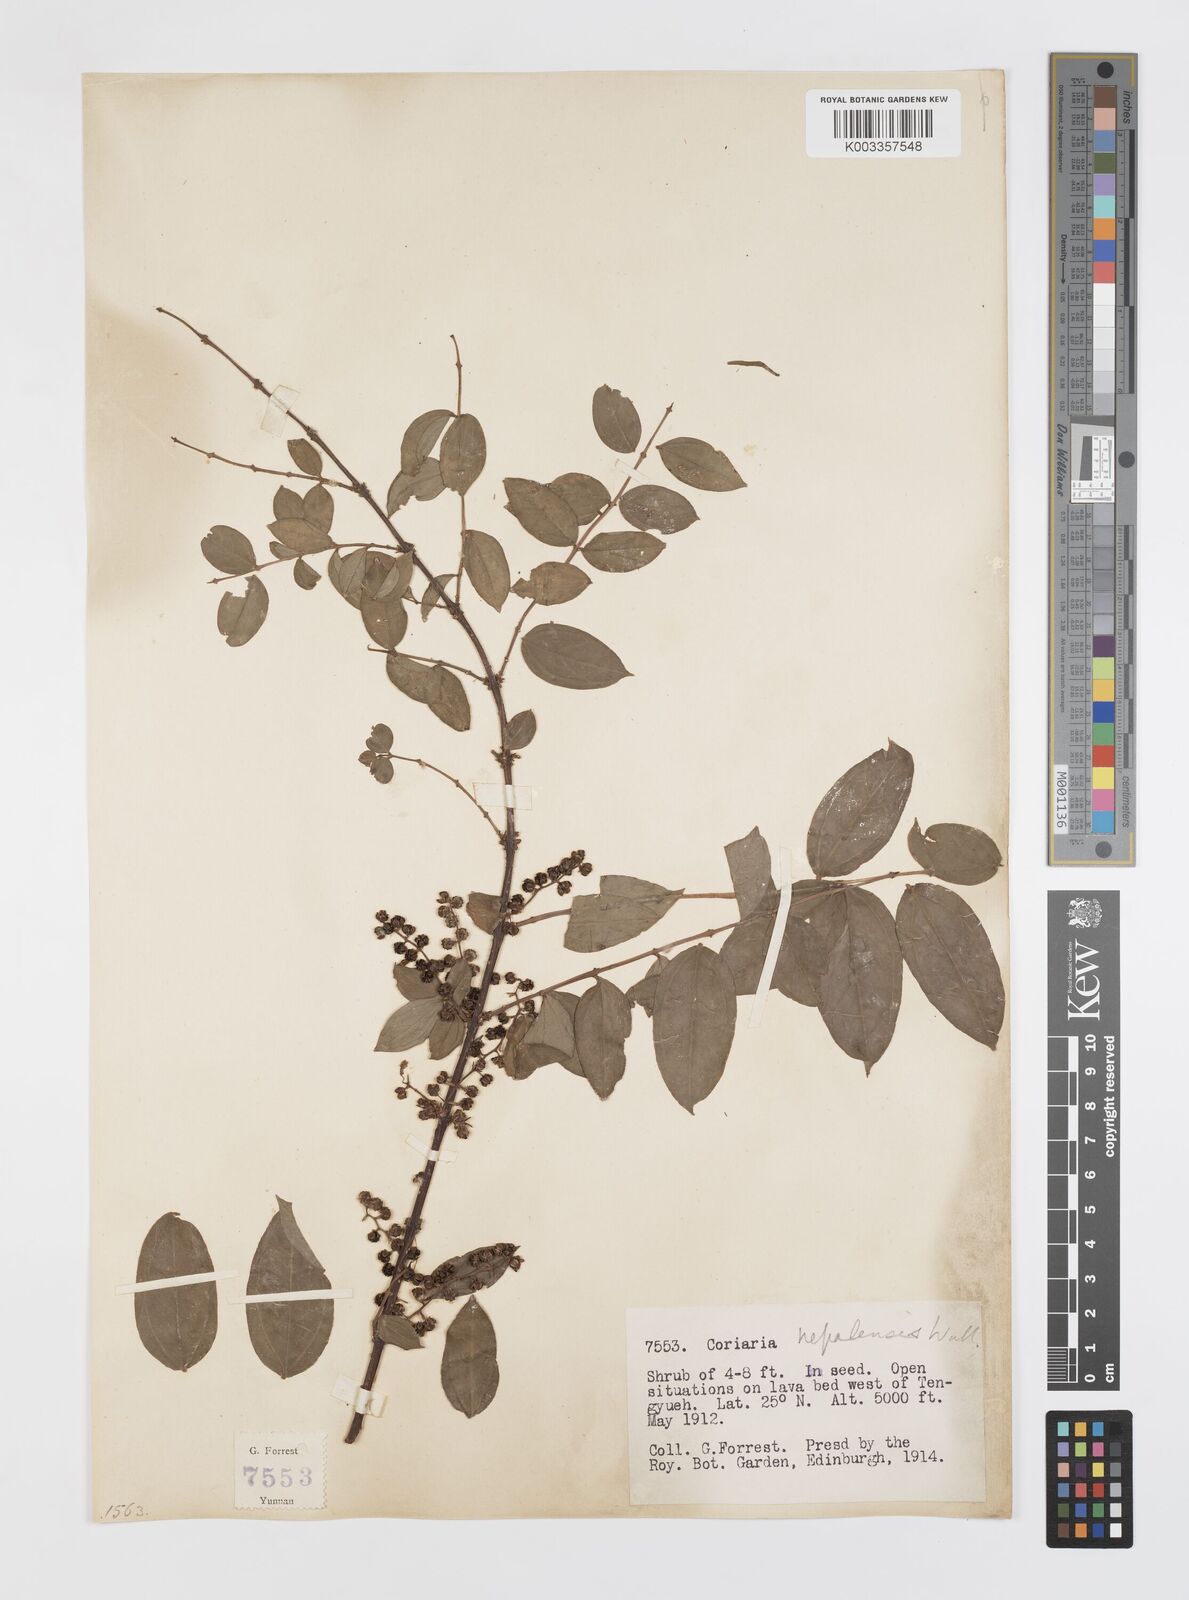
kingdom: Plantae
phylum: Tracheophyta
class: Magnoliopsida
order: Cucurbitales
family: Coriariaceae
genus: Coriaria
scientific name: Coriaria napalensis
